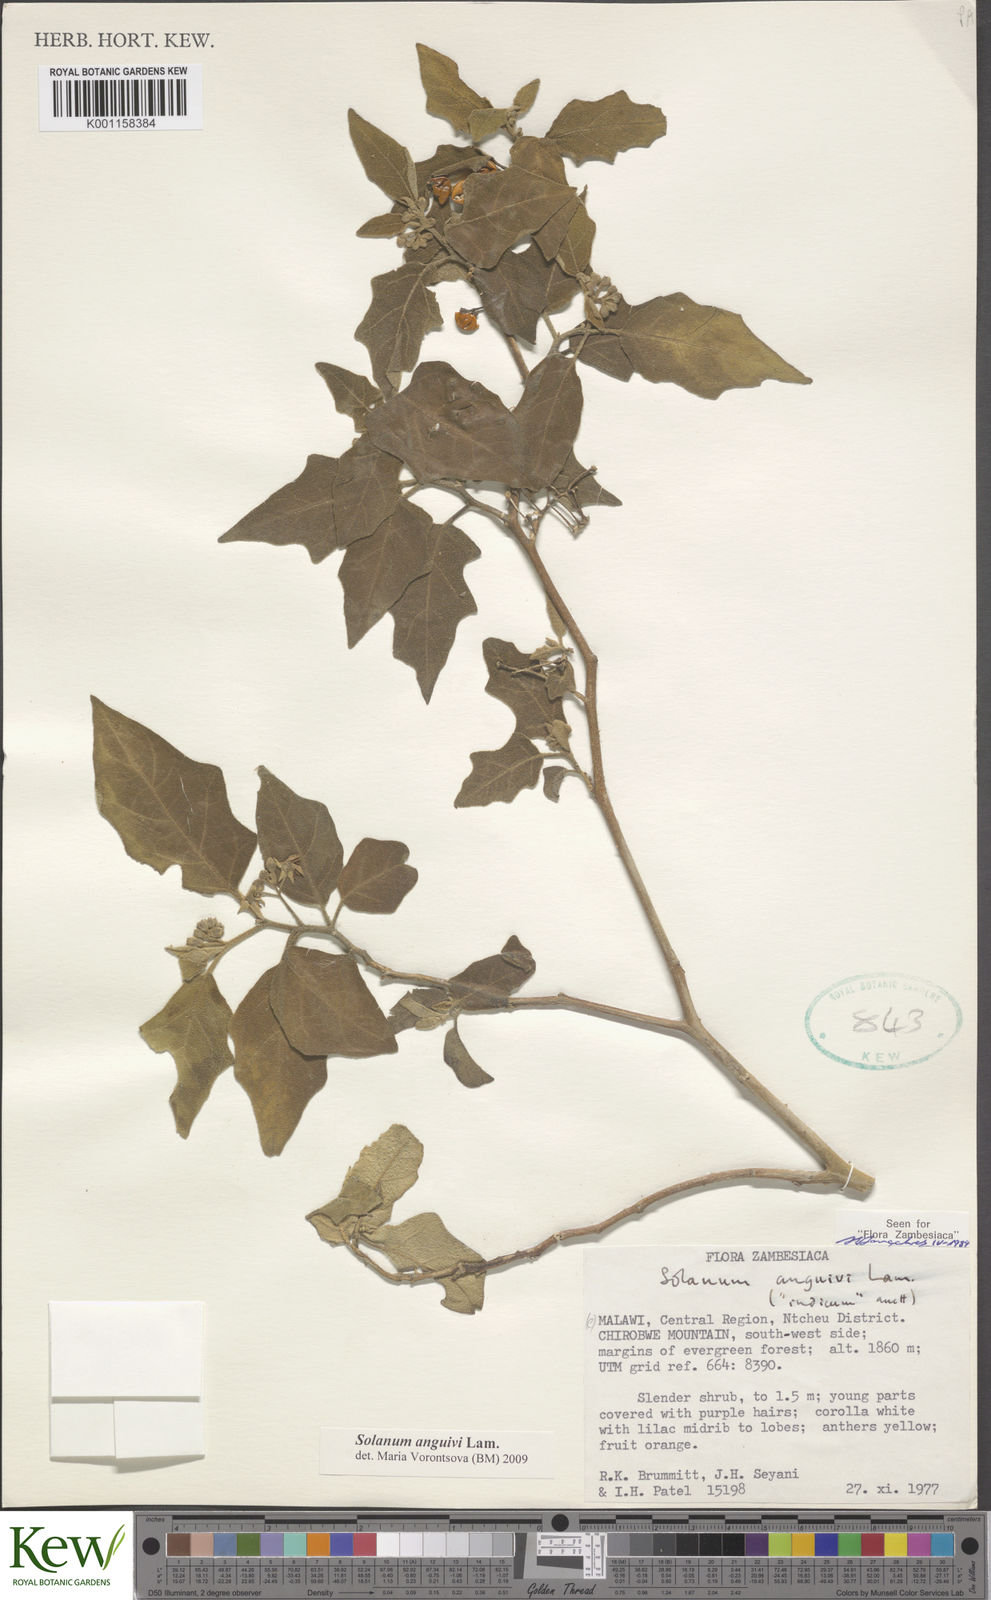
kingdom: Plantae
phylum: Tracheophyta
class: Magnoliopsida
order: Solanales
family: Solanaceae
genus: Solanum
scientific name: Solanum anguivi
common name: Forest bitterberry
